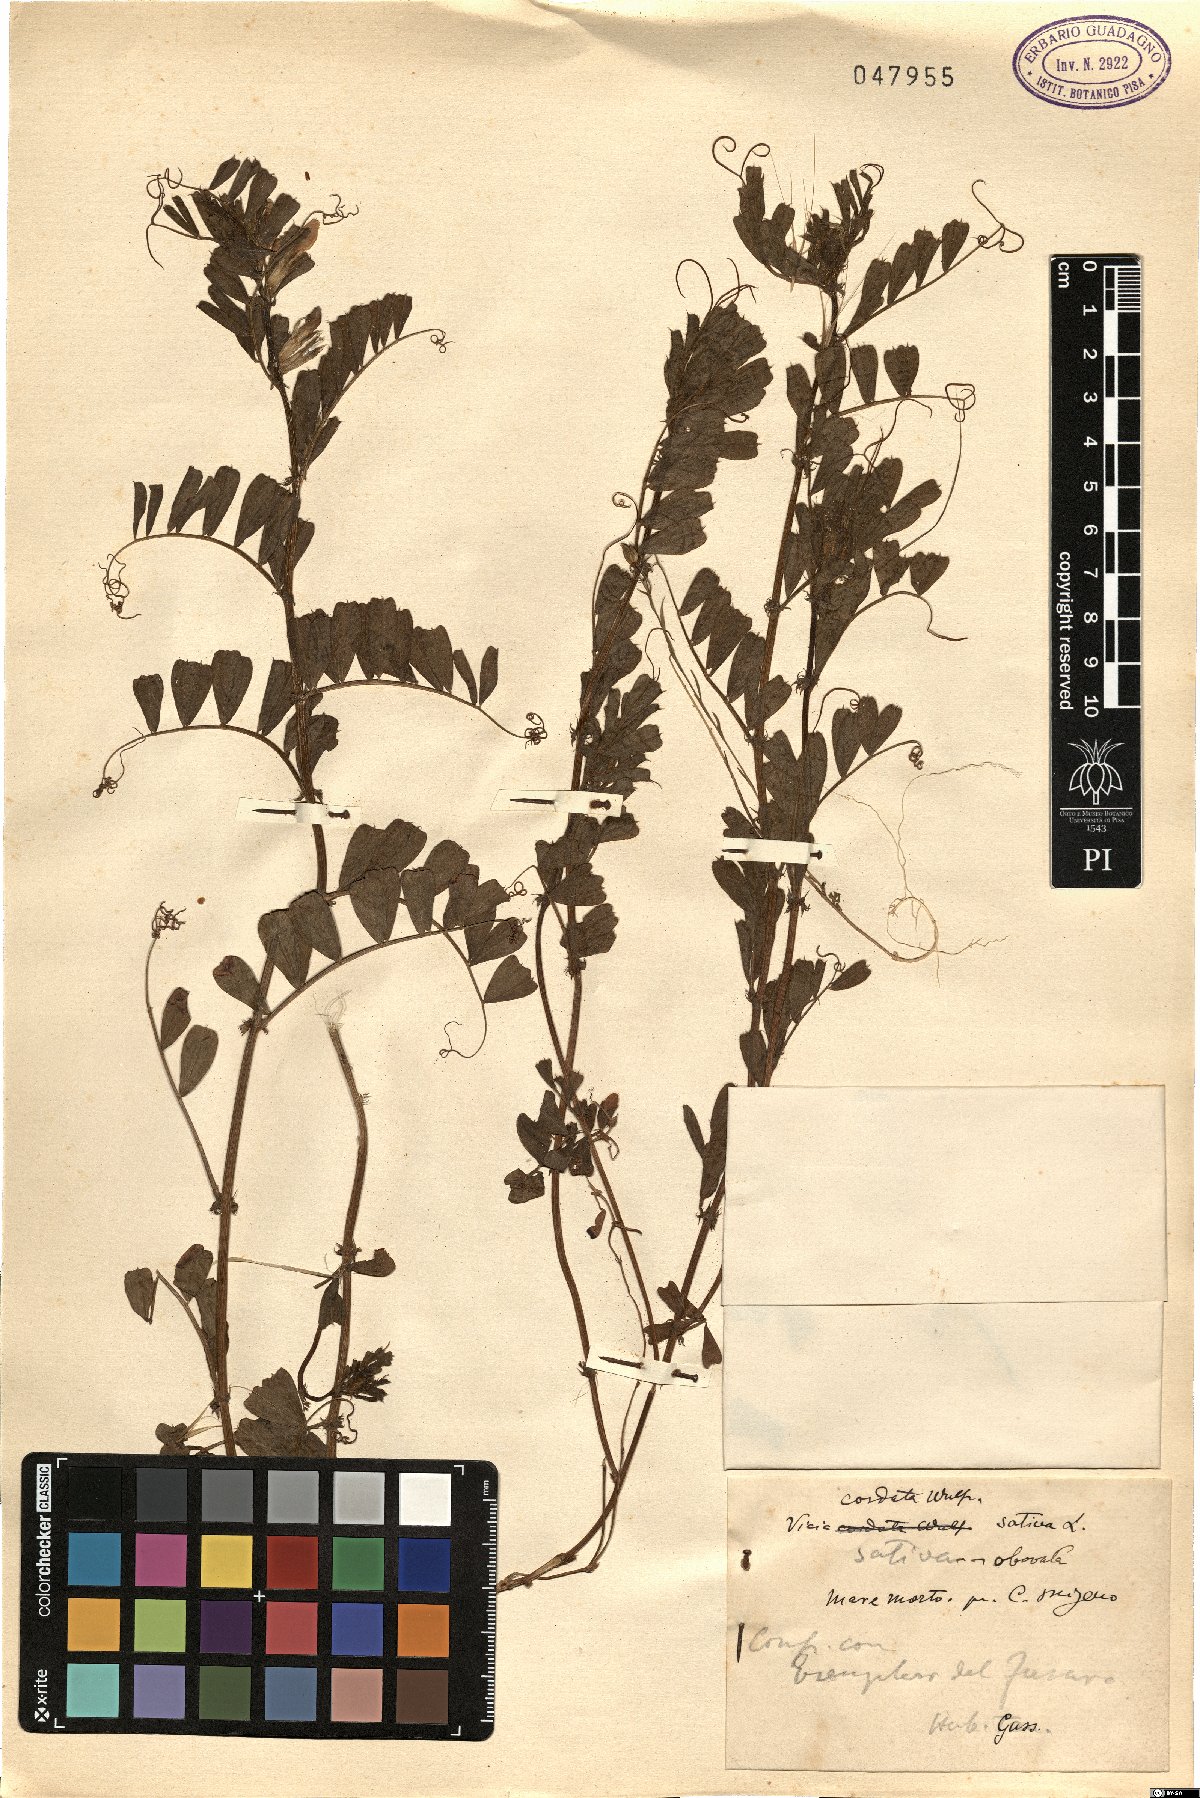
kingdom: Plantae
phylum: Tracheophyta
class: Magnoliopsida
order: Fabales
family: Fabaceae
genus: Vicia
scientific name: Vicia sativa
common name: Garden vetch
